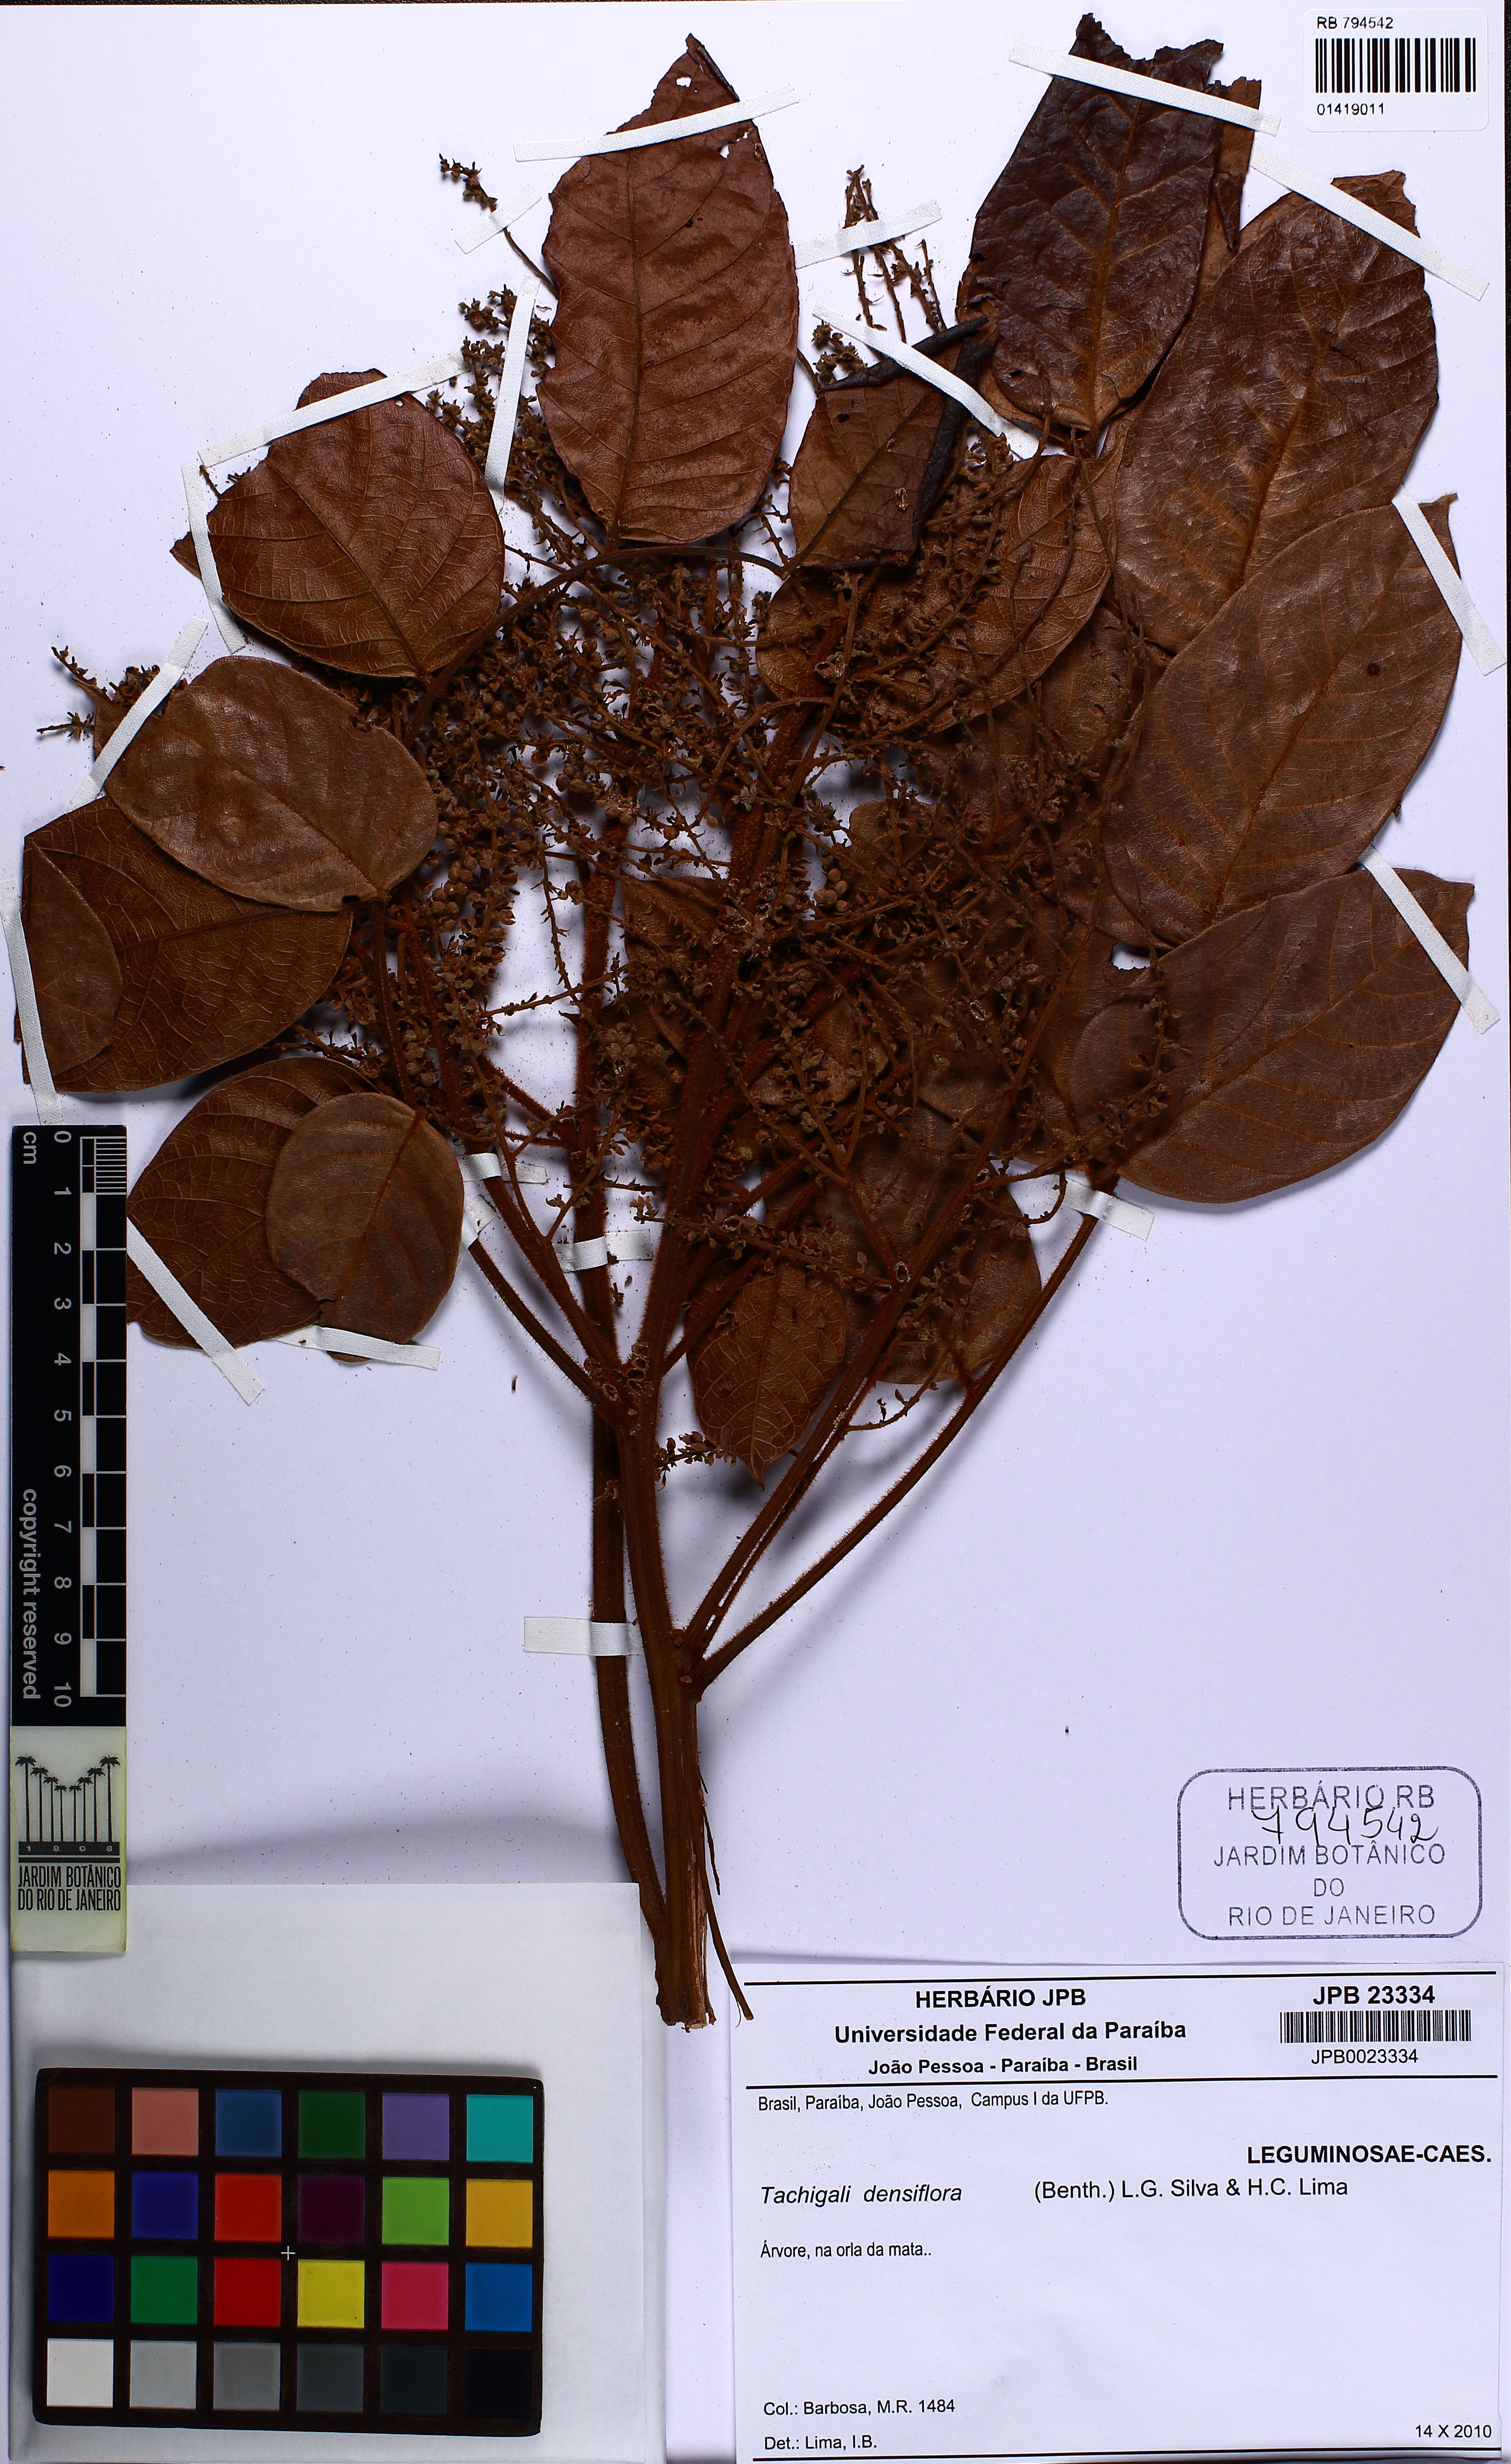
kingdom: Plantae
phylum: Tracheophyta
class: Magnoliopsida
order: Fabales
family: Fabaceae
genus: Tachigali
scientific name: Tachigali densiflora
